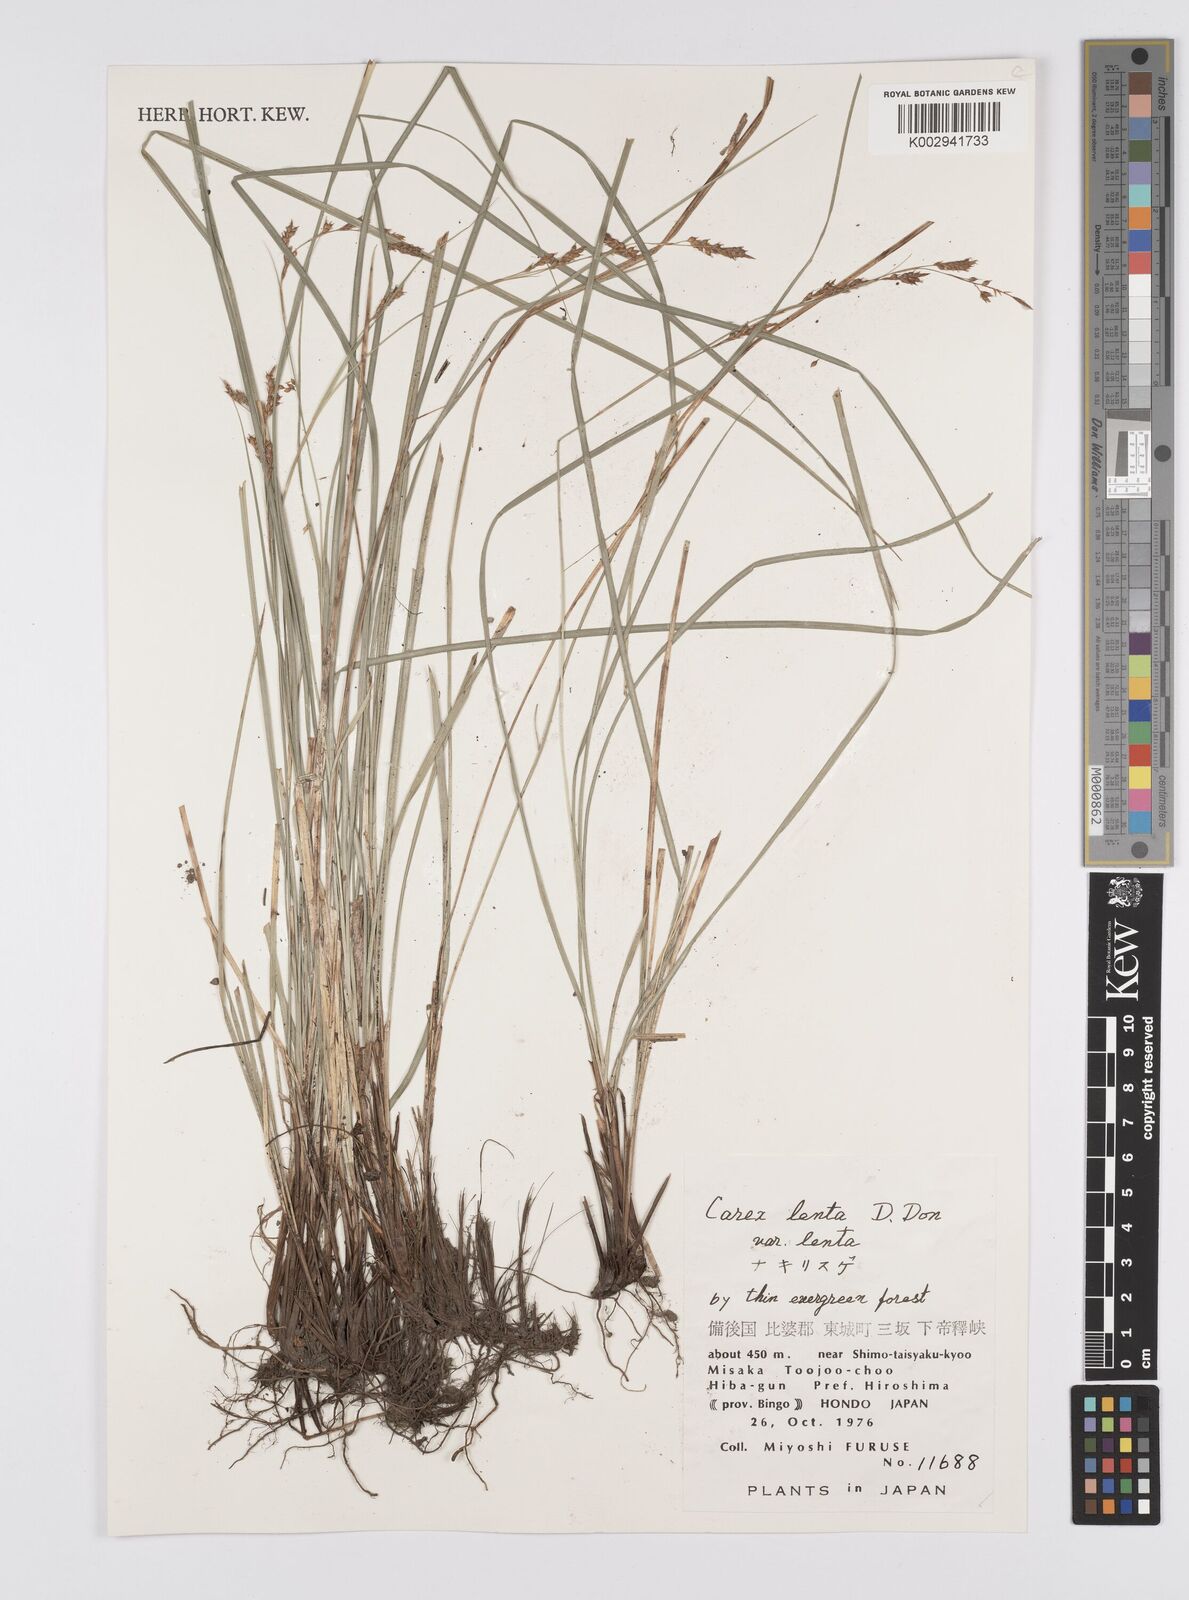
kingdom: Plantae
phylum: Tracheophyta
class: Liliopsida
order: Poales
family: Cyperaceae
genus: Carex
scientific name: Carex brunnea
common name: Greater brown sedge
